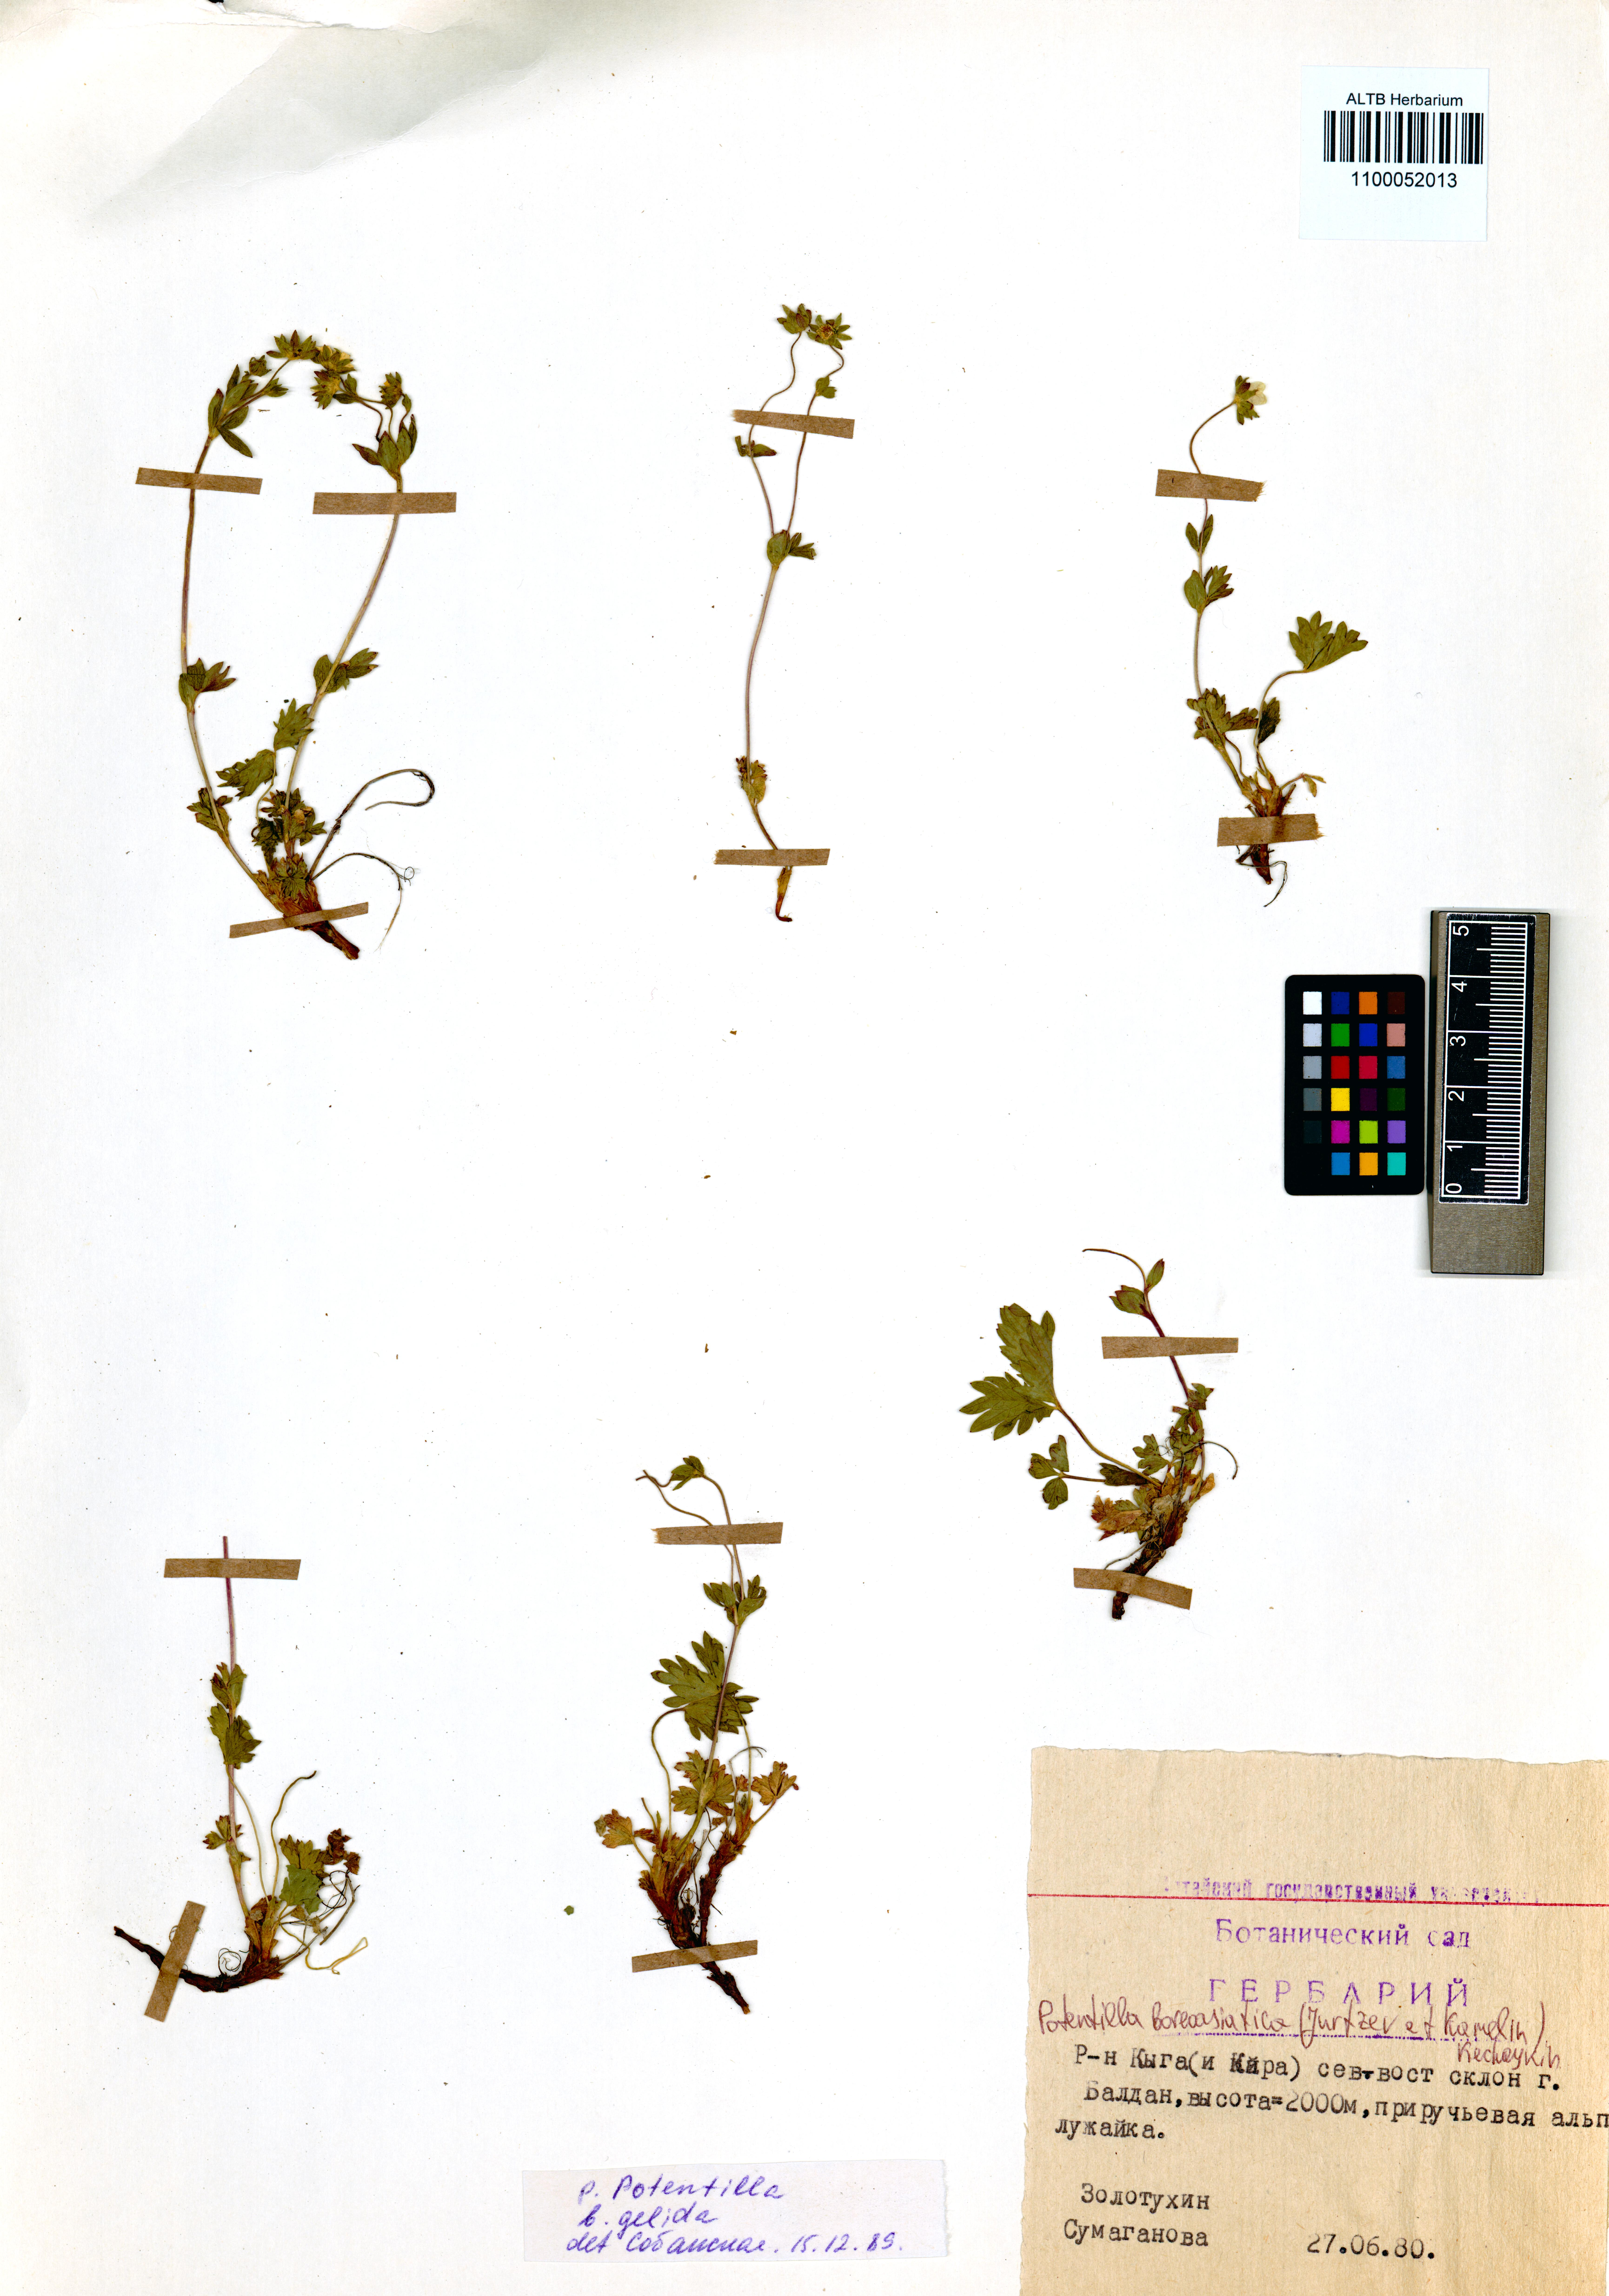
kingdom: Plantae
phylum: Tracheophyta
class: Magnoliopsida
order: Rosales
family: Rosaceae
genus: Potentilla
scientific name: Potentilla
